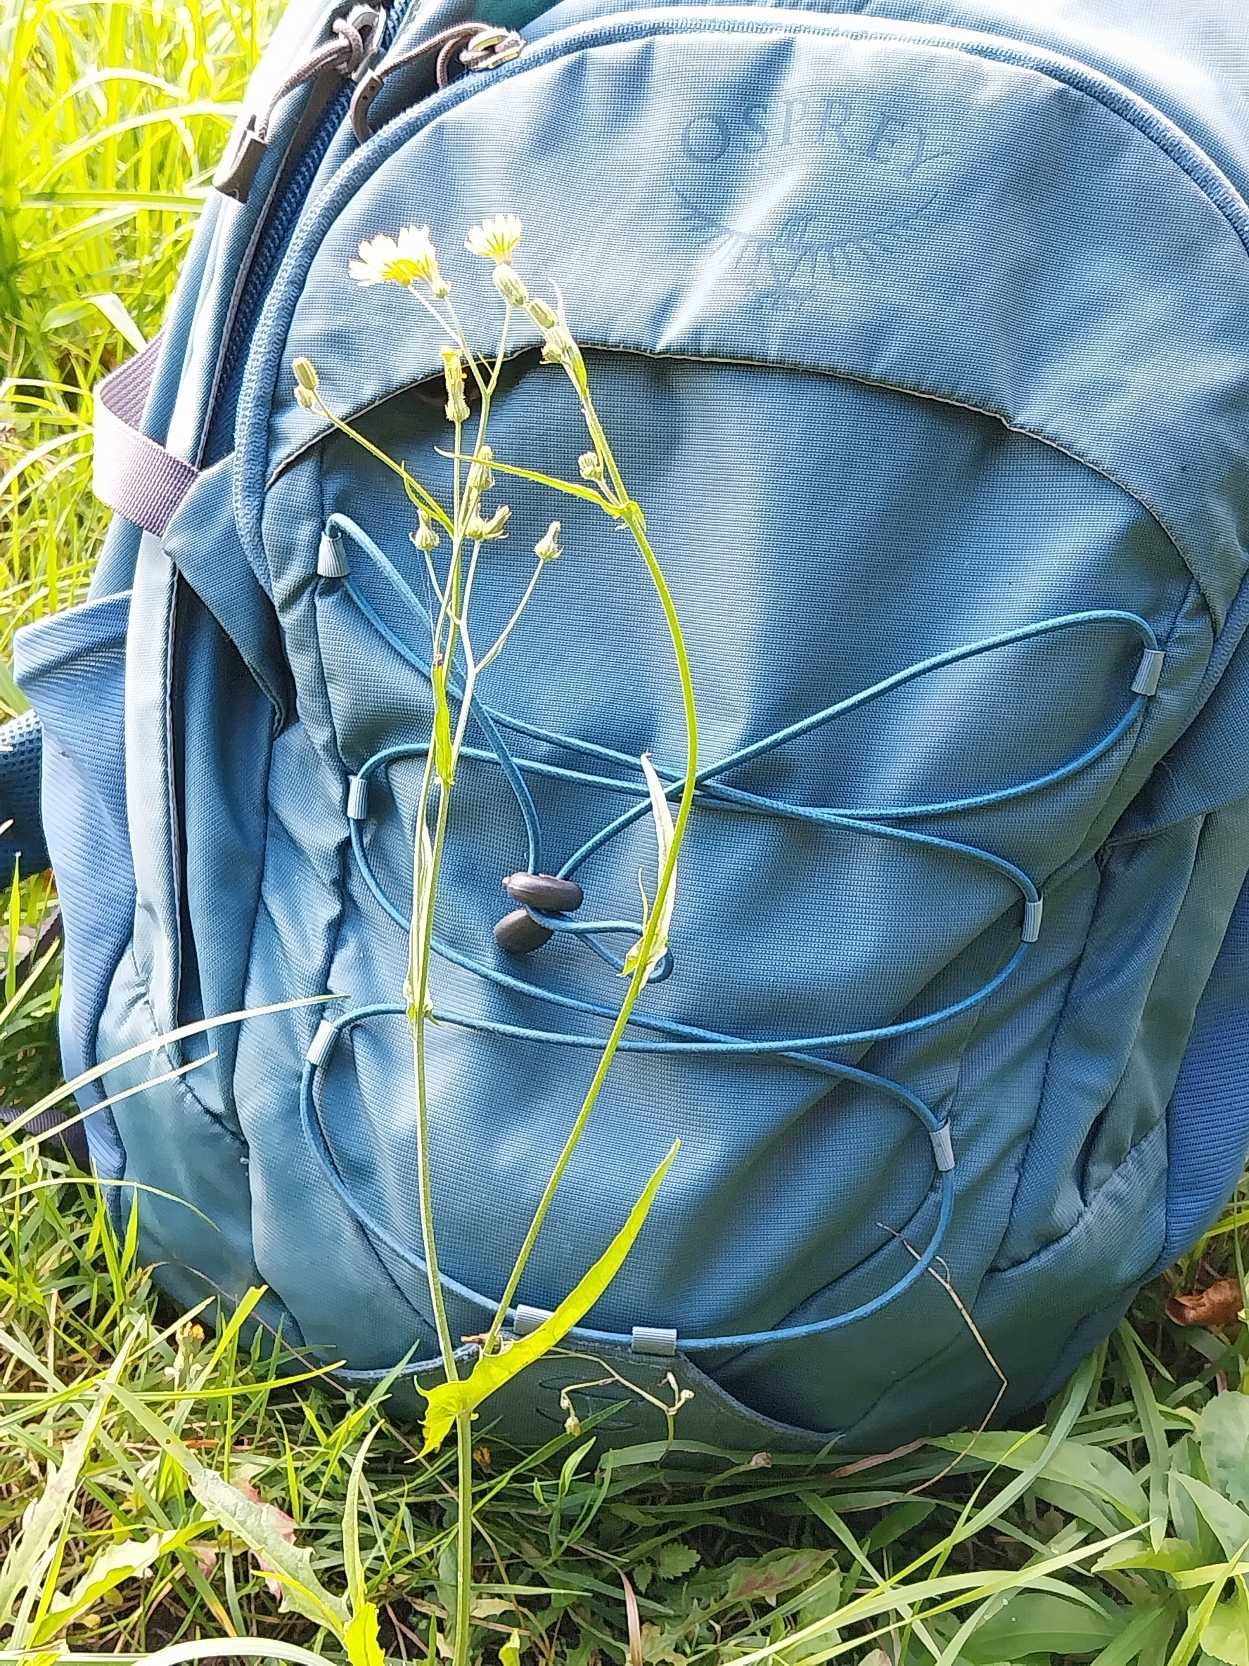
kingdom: Plantae
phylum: Tracheophyta
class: Magnoliopsida
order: Asterales
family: Asteraceae
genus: Crepis
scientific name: Crepis capillaris
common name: Grøn høgeskæg
